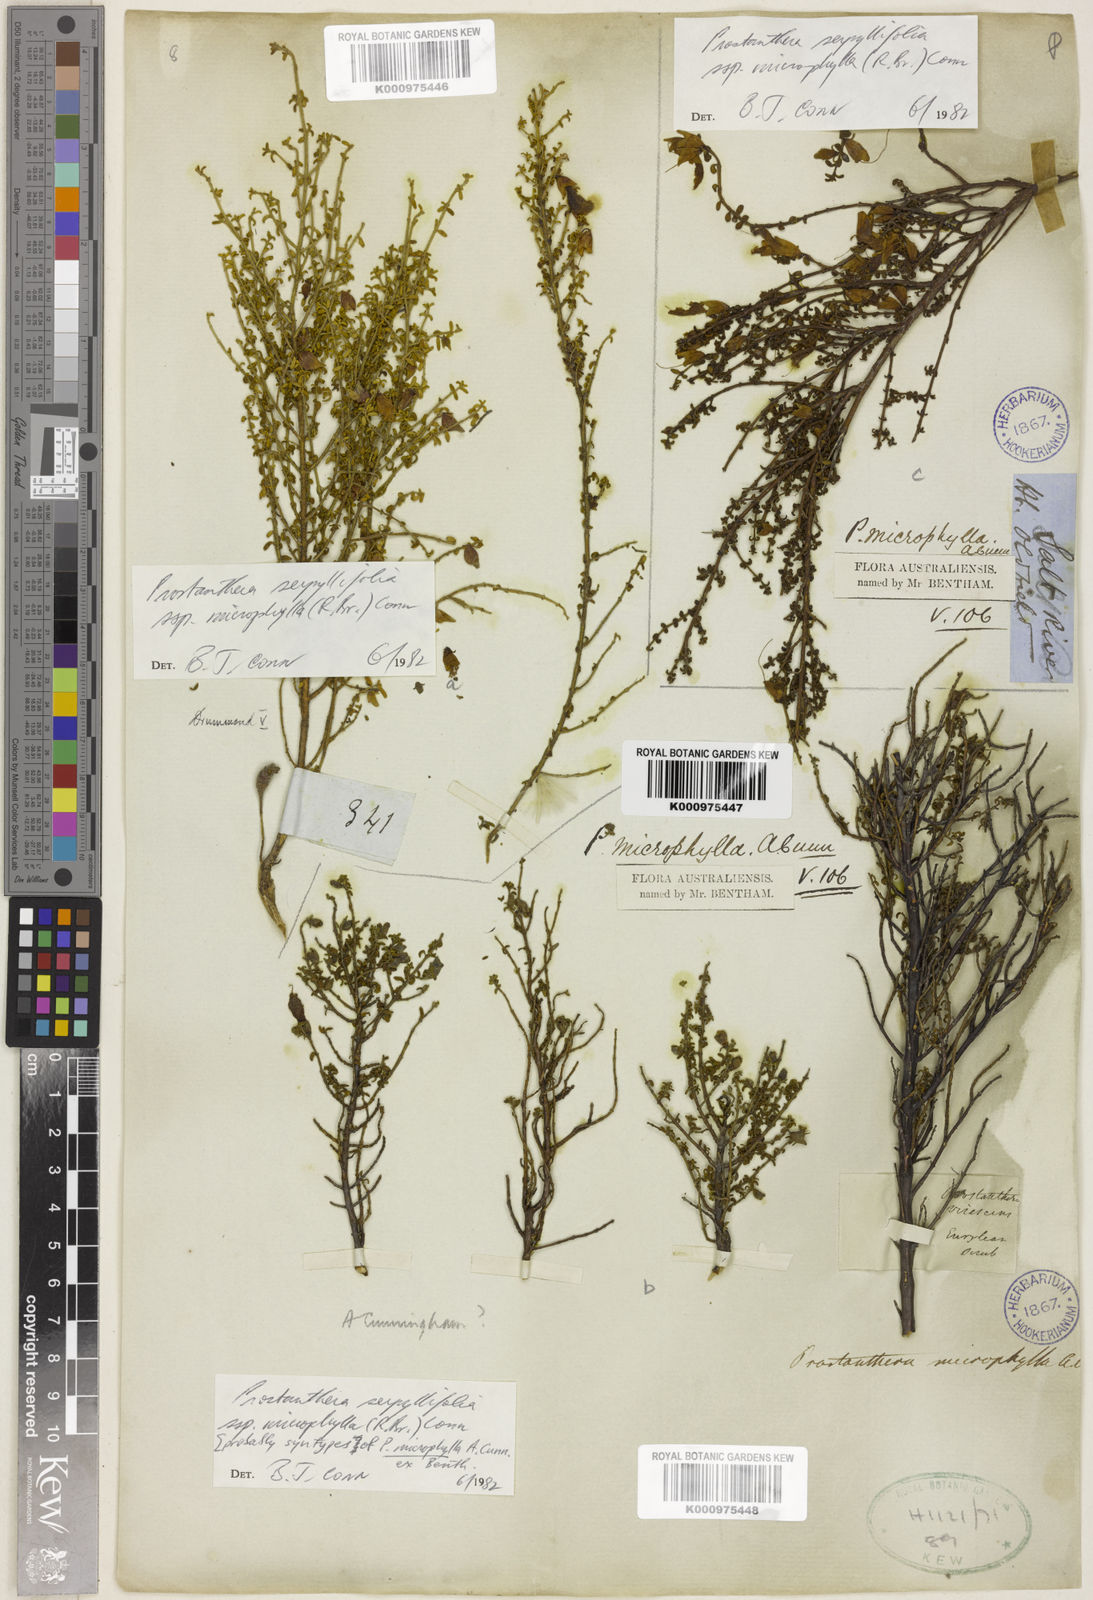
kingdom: Plantae
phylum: Tracheophyta
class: Magnoliopsida
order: Lamiales
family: Lamiaceae
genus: Prostanthera
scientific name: Prostanthera microphylla
